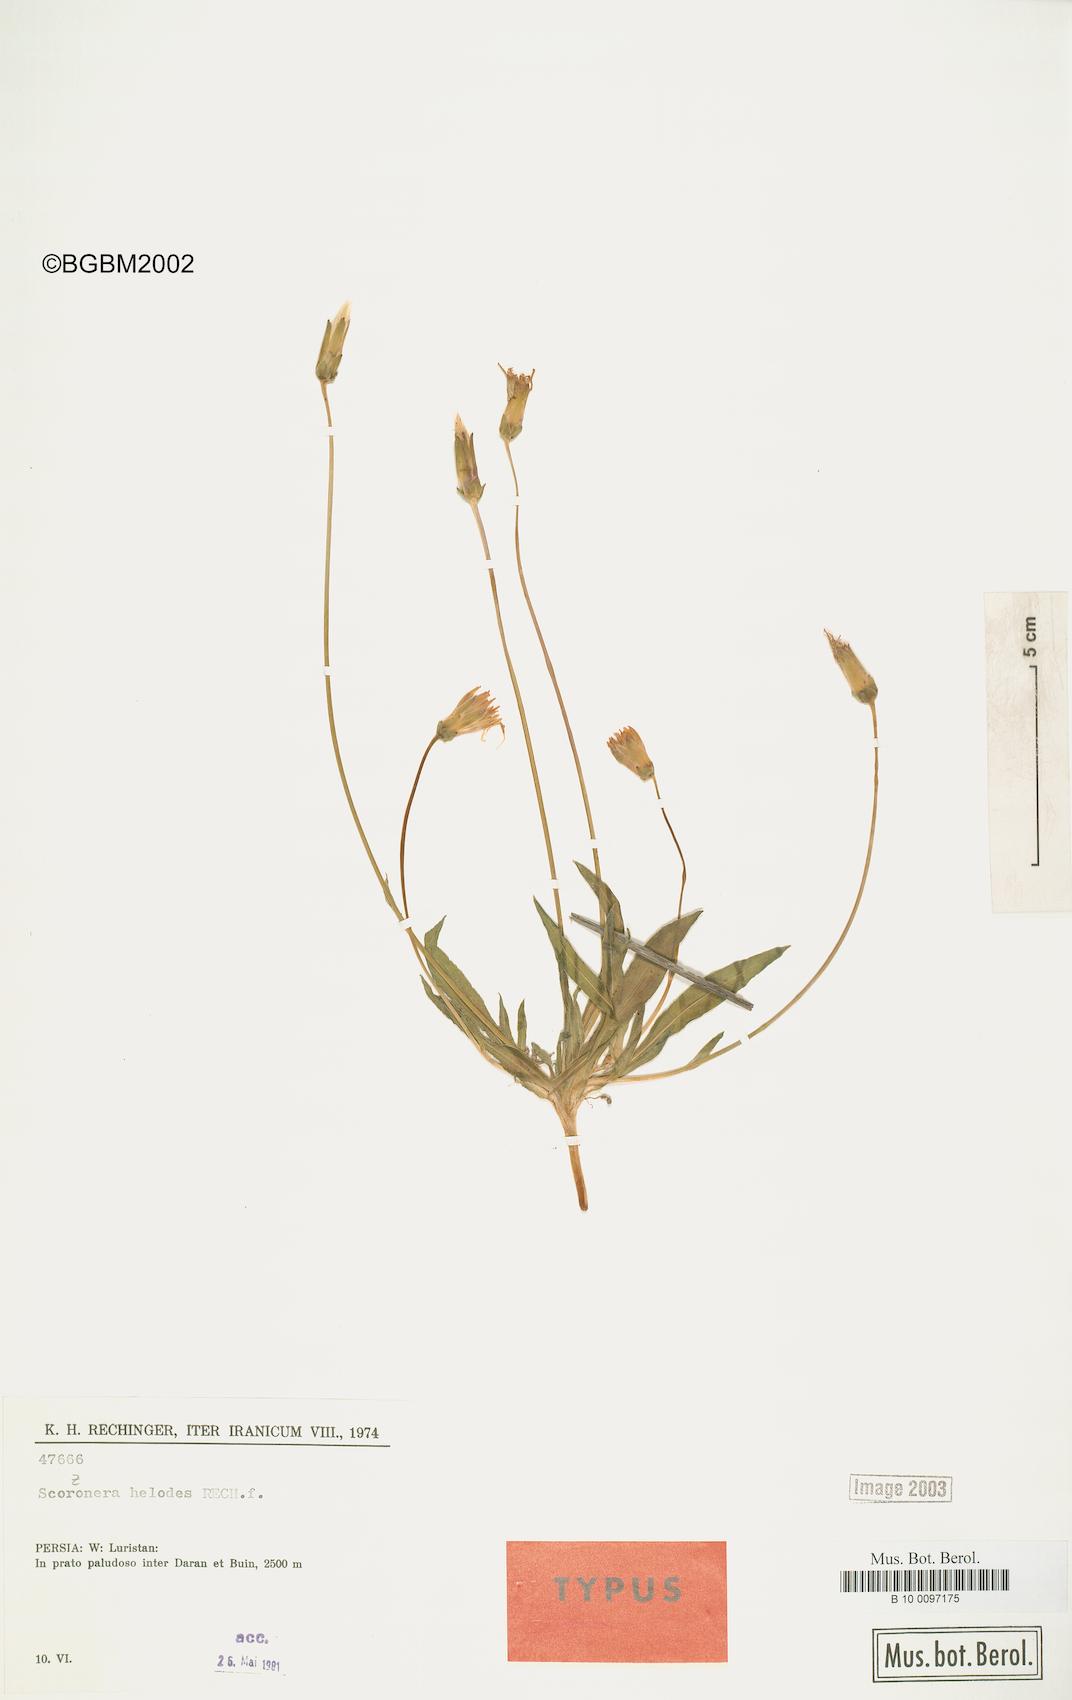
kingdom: Plantae
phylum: Tracheophyta
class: Magnoliopsida
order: Asterales
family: Asteraceae
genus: Scorzonera
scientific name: Scorzonera helodes
